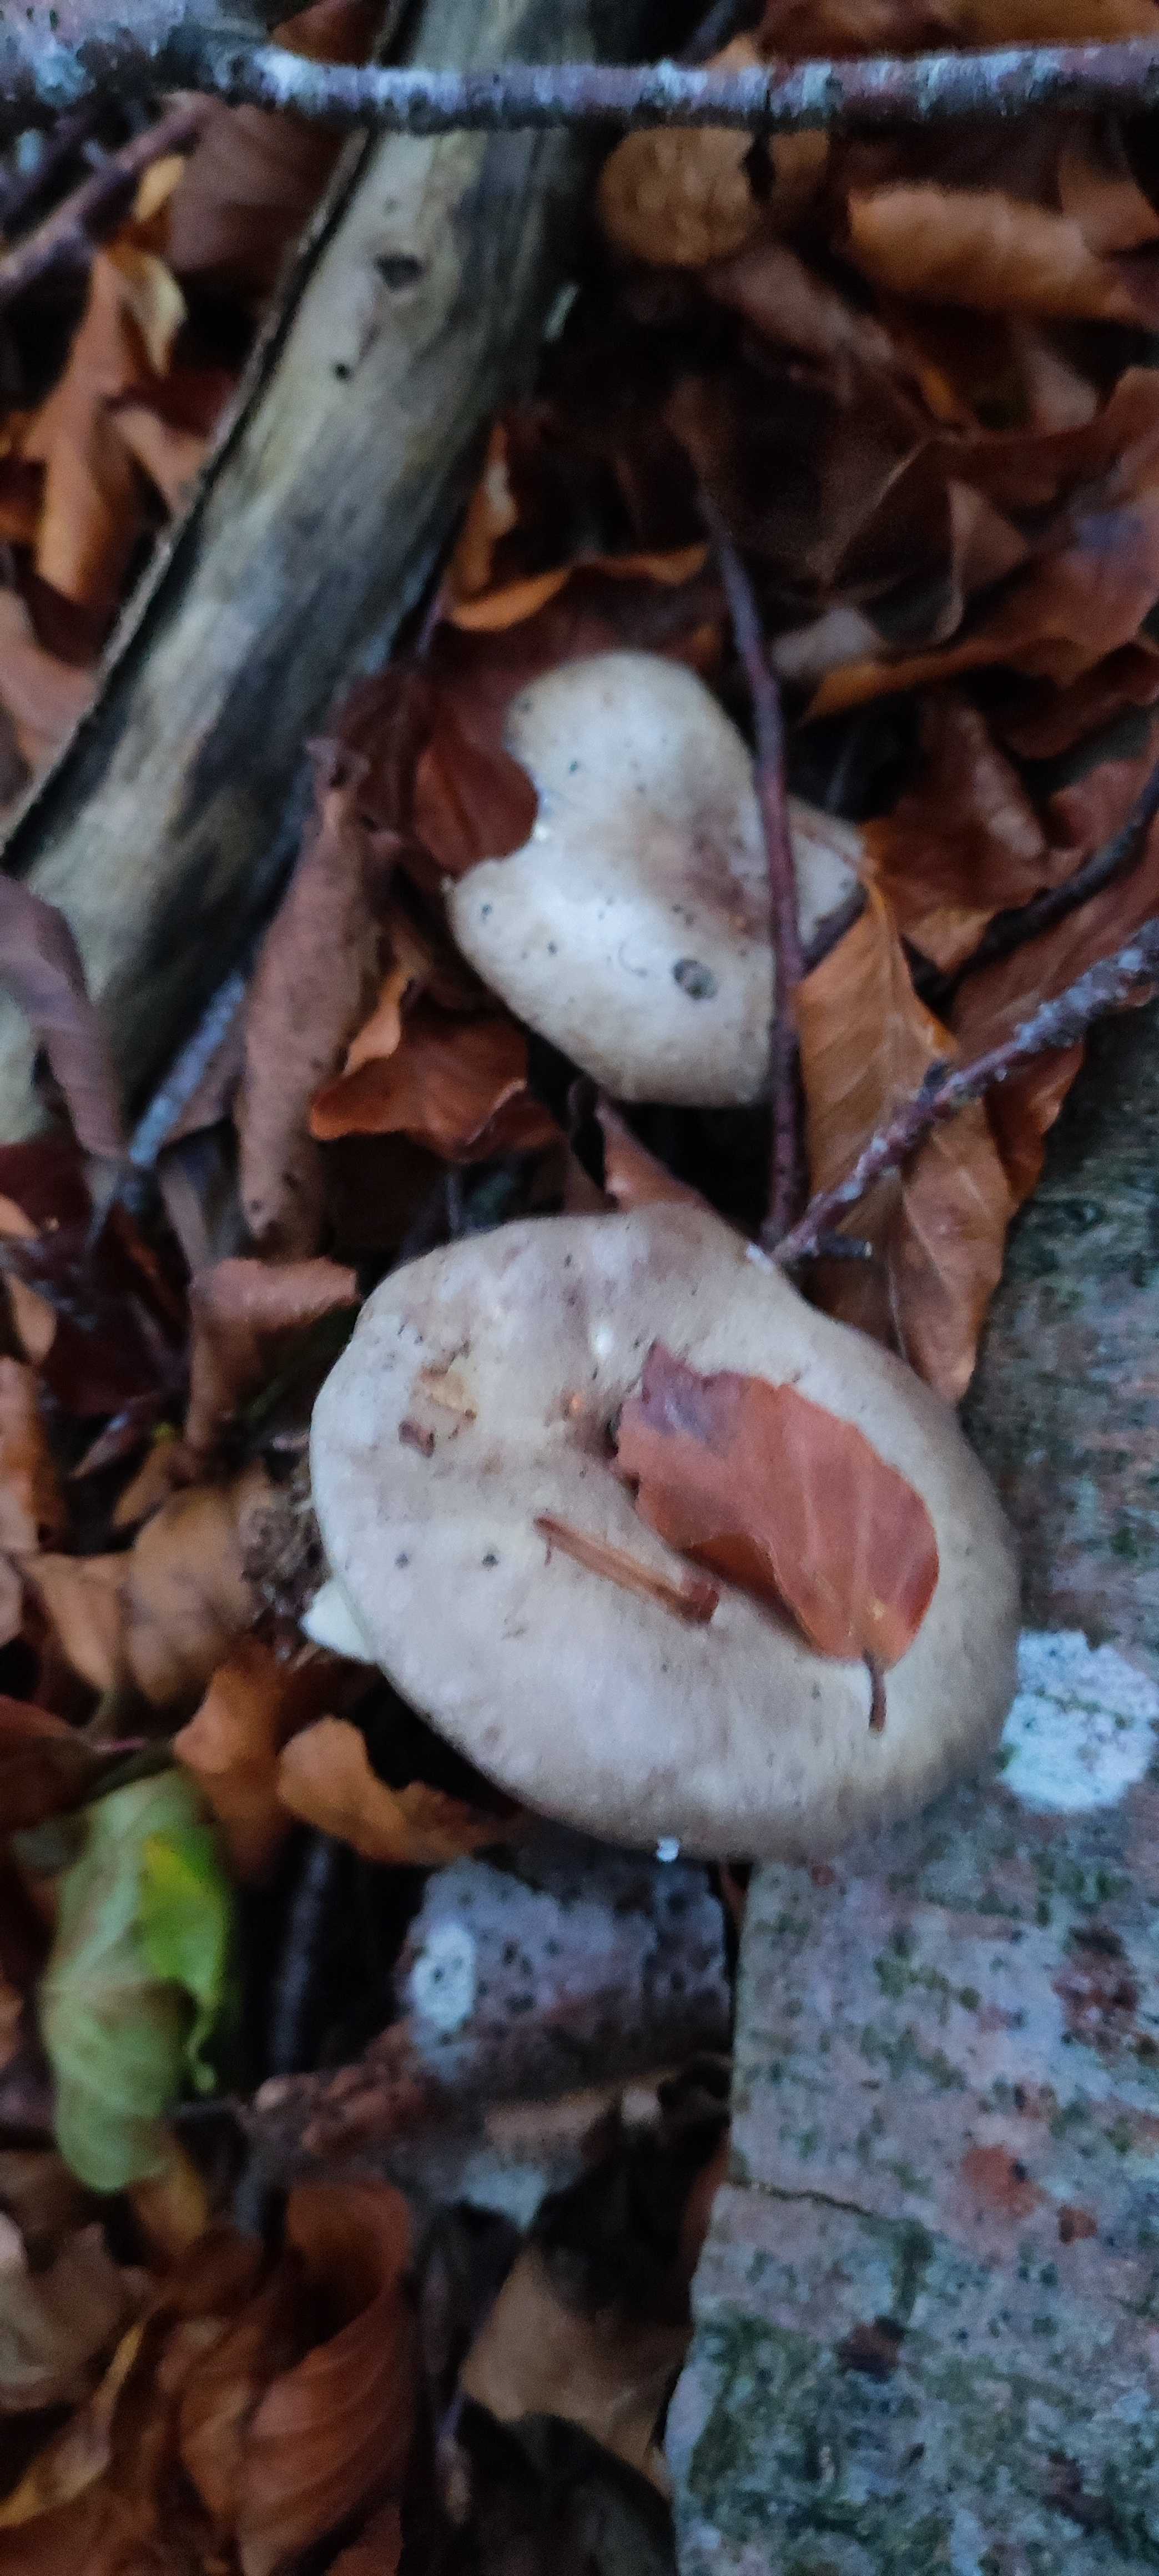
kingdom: Fungi
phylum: Basidiomycota
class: Agaricomycetes
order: Russulales
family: Russulaceae
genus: Lactarius
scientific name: Lactarius blennius
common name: dråbeplettet mælkehat
